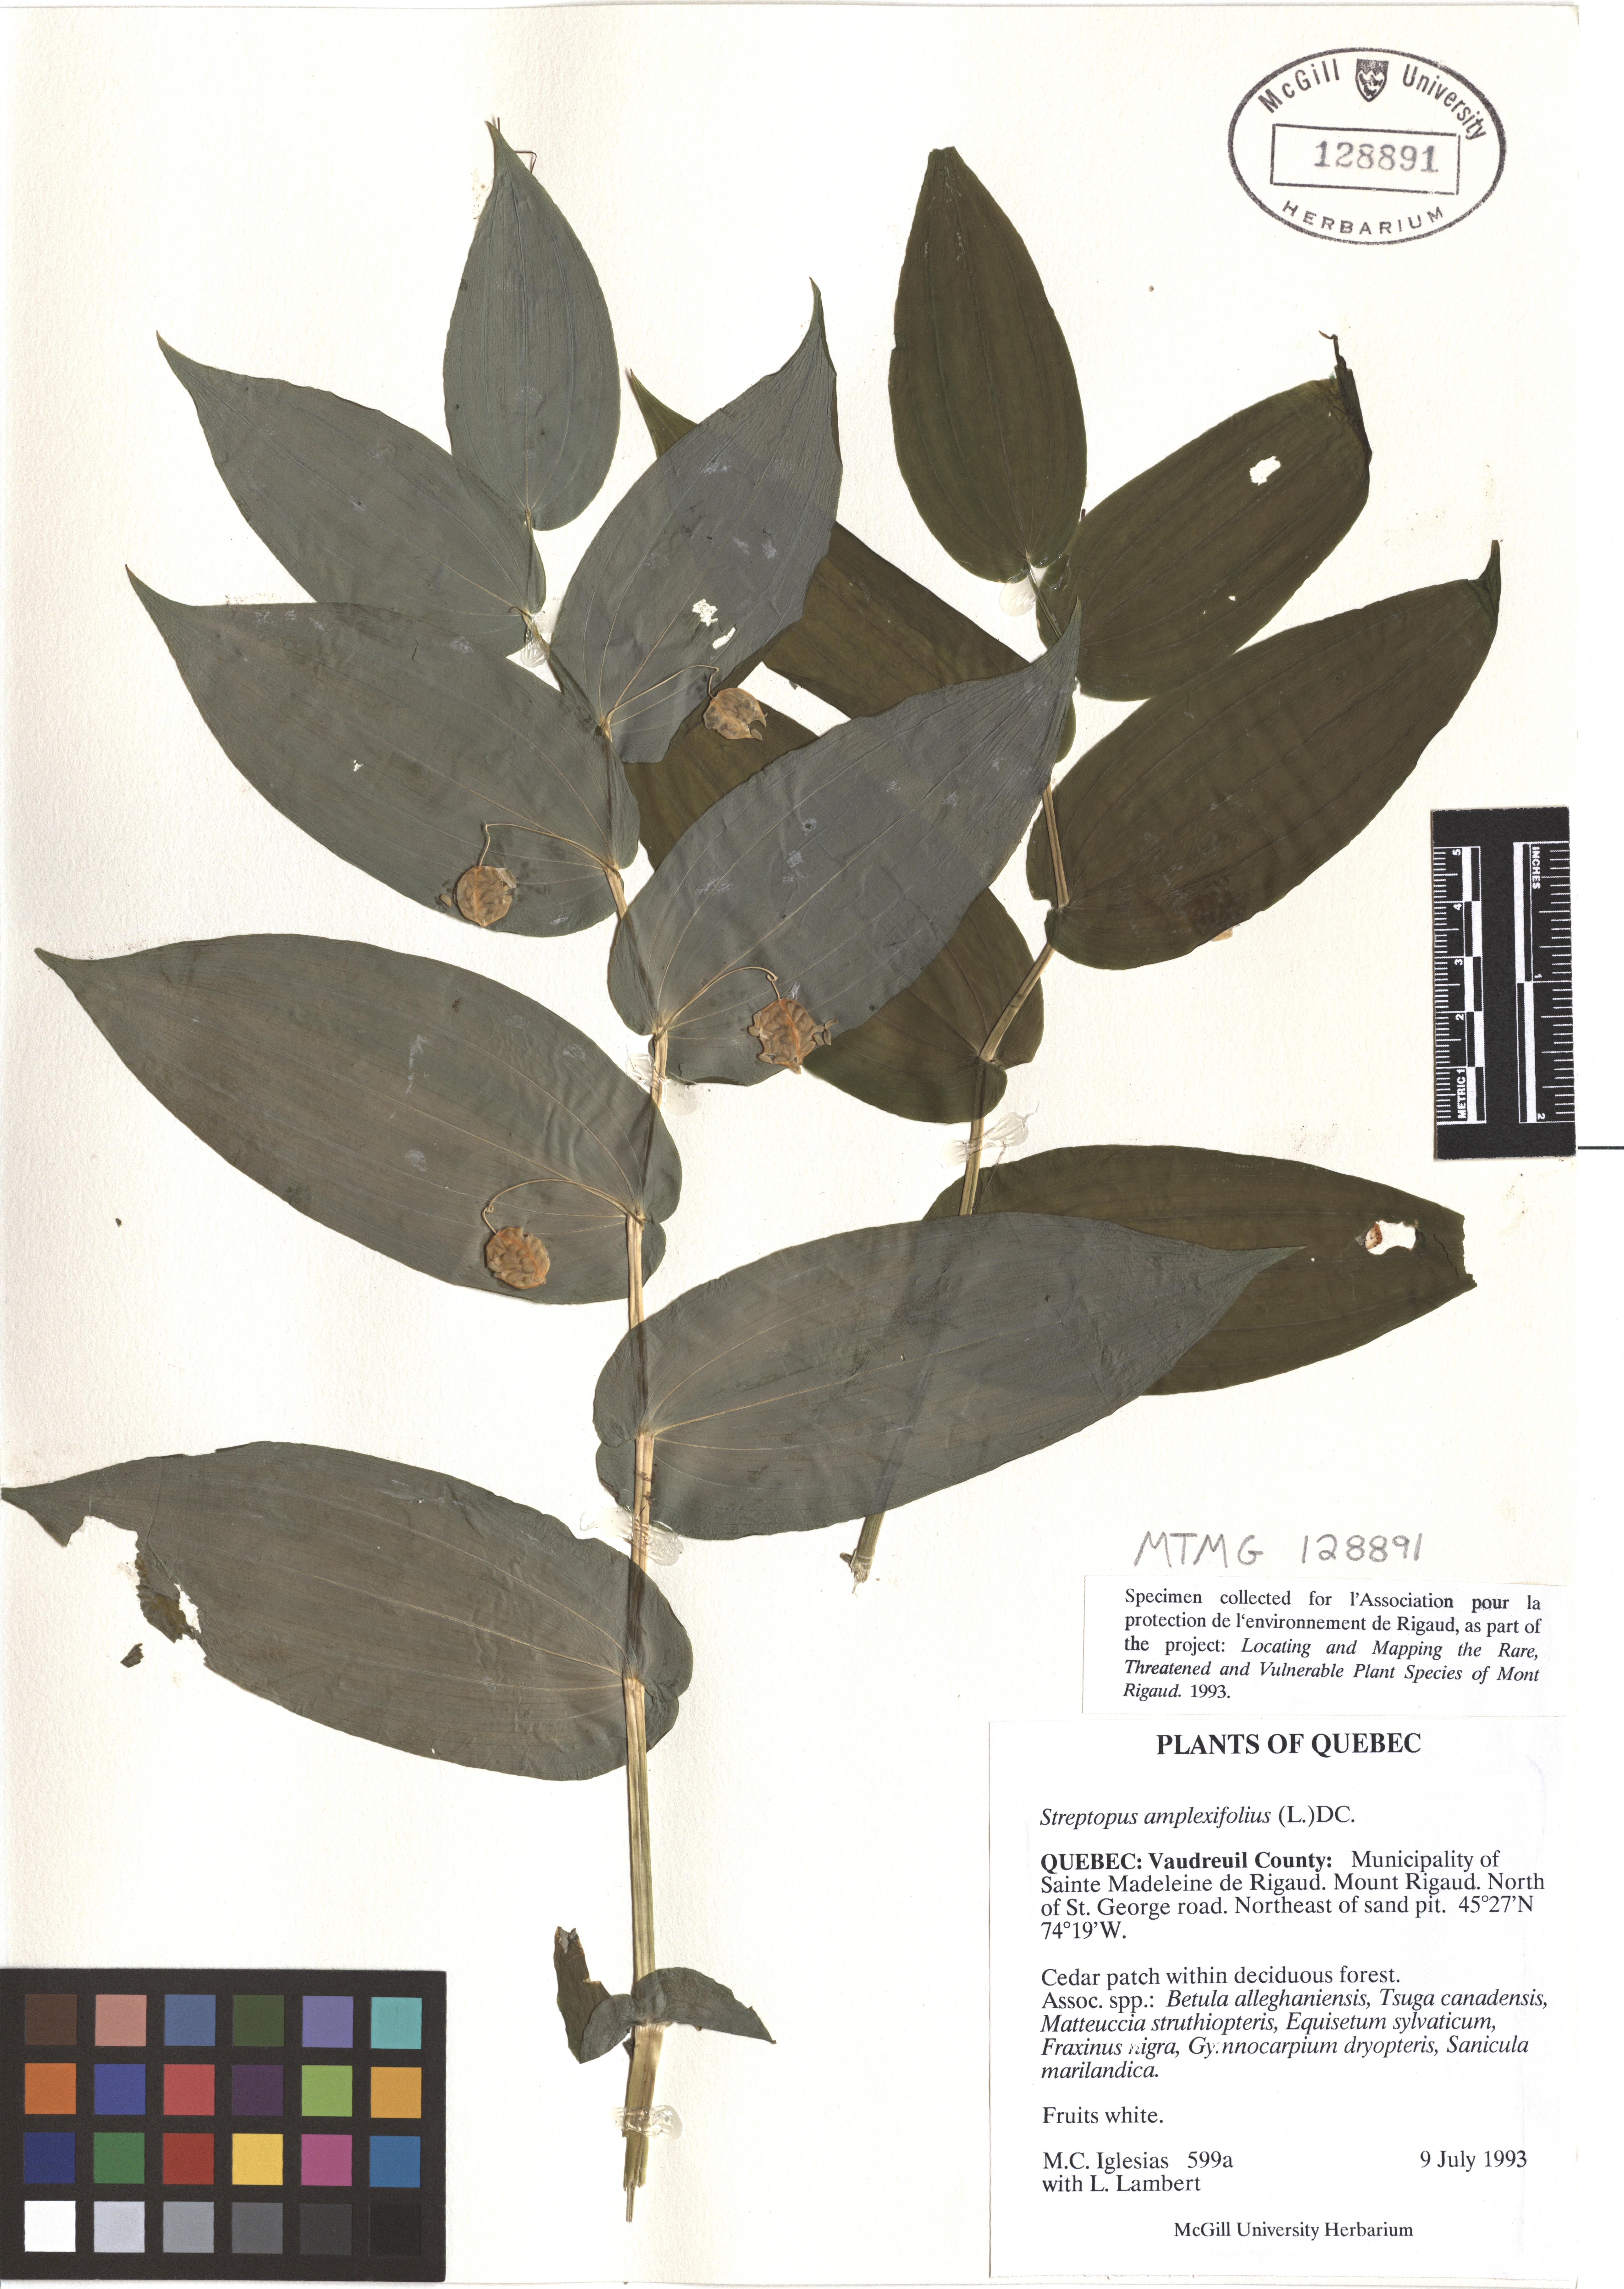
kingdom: Plantae
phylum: Tracheophyta
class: Liliopsida
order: Liliales
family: Liliaceae
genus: Streptopus
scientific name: Streptopus amplexifolius
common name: Clasp twisted stalk
